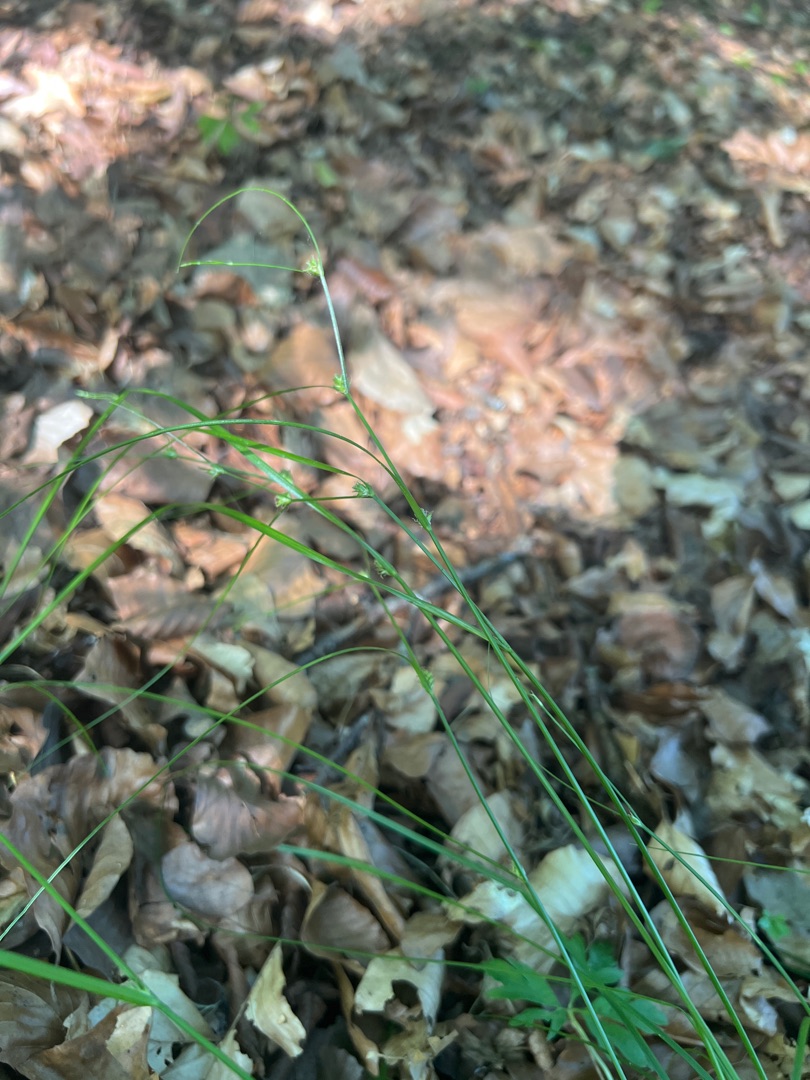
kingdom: Plantae
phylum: Tracheophyta
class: Liliopsida
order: Poales
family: Cyperaceae
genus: Carex
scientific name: Carex remota
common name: Akselblomstret star
